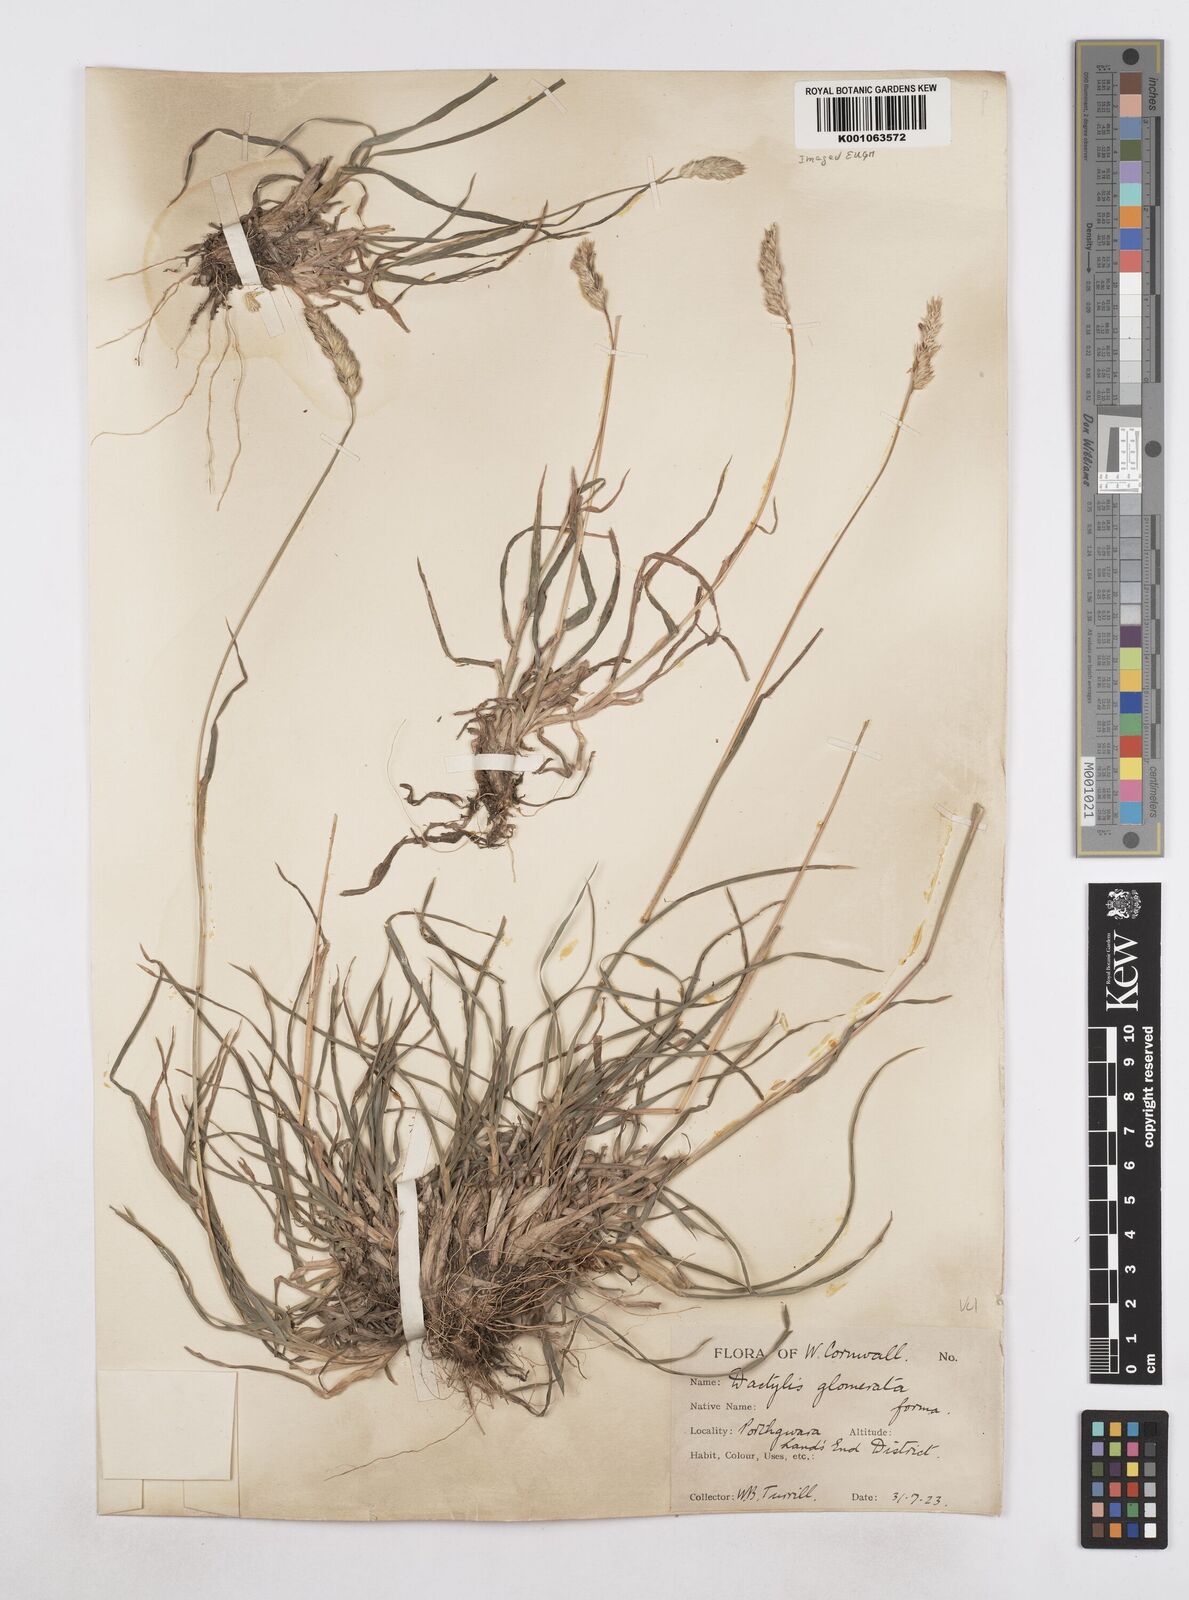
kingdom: Plantae
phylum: Tracheophyta
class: Liliopsida
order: Poales
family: Poaceae
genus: Dactylis
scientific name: Dactylis glomerata
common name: Orchardgrass
